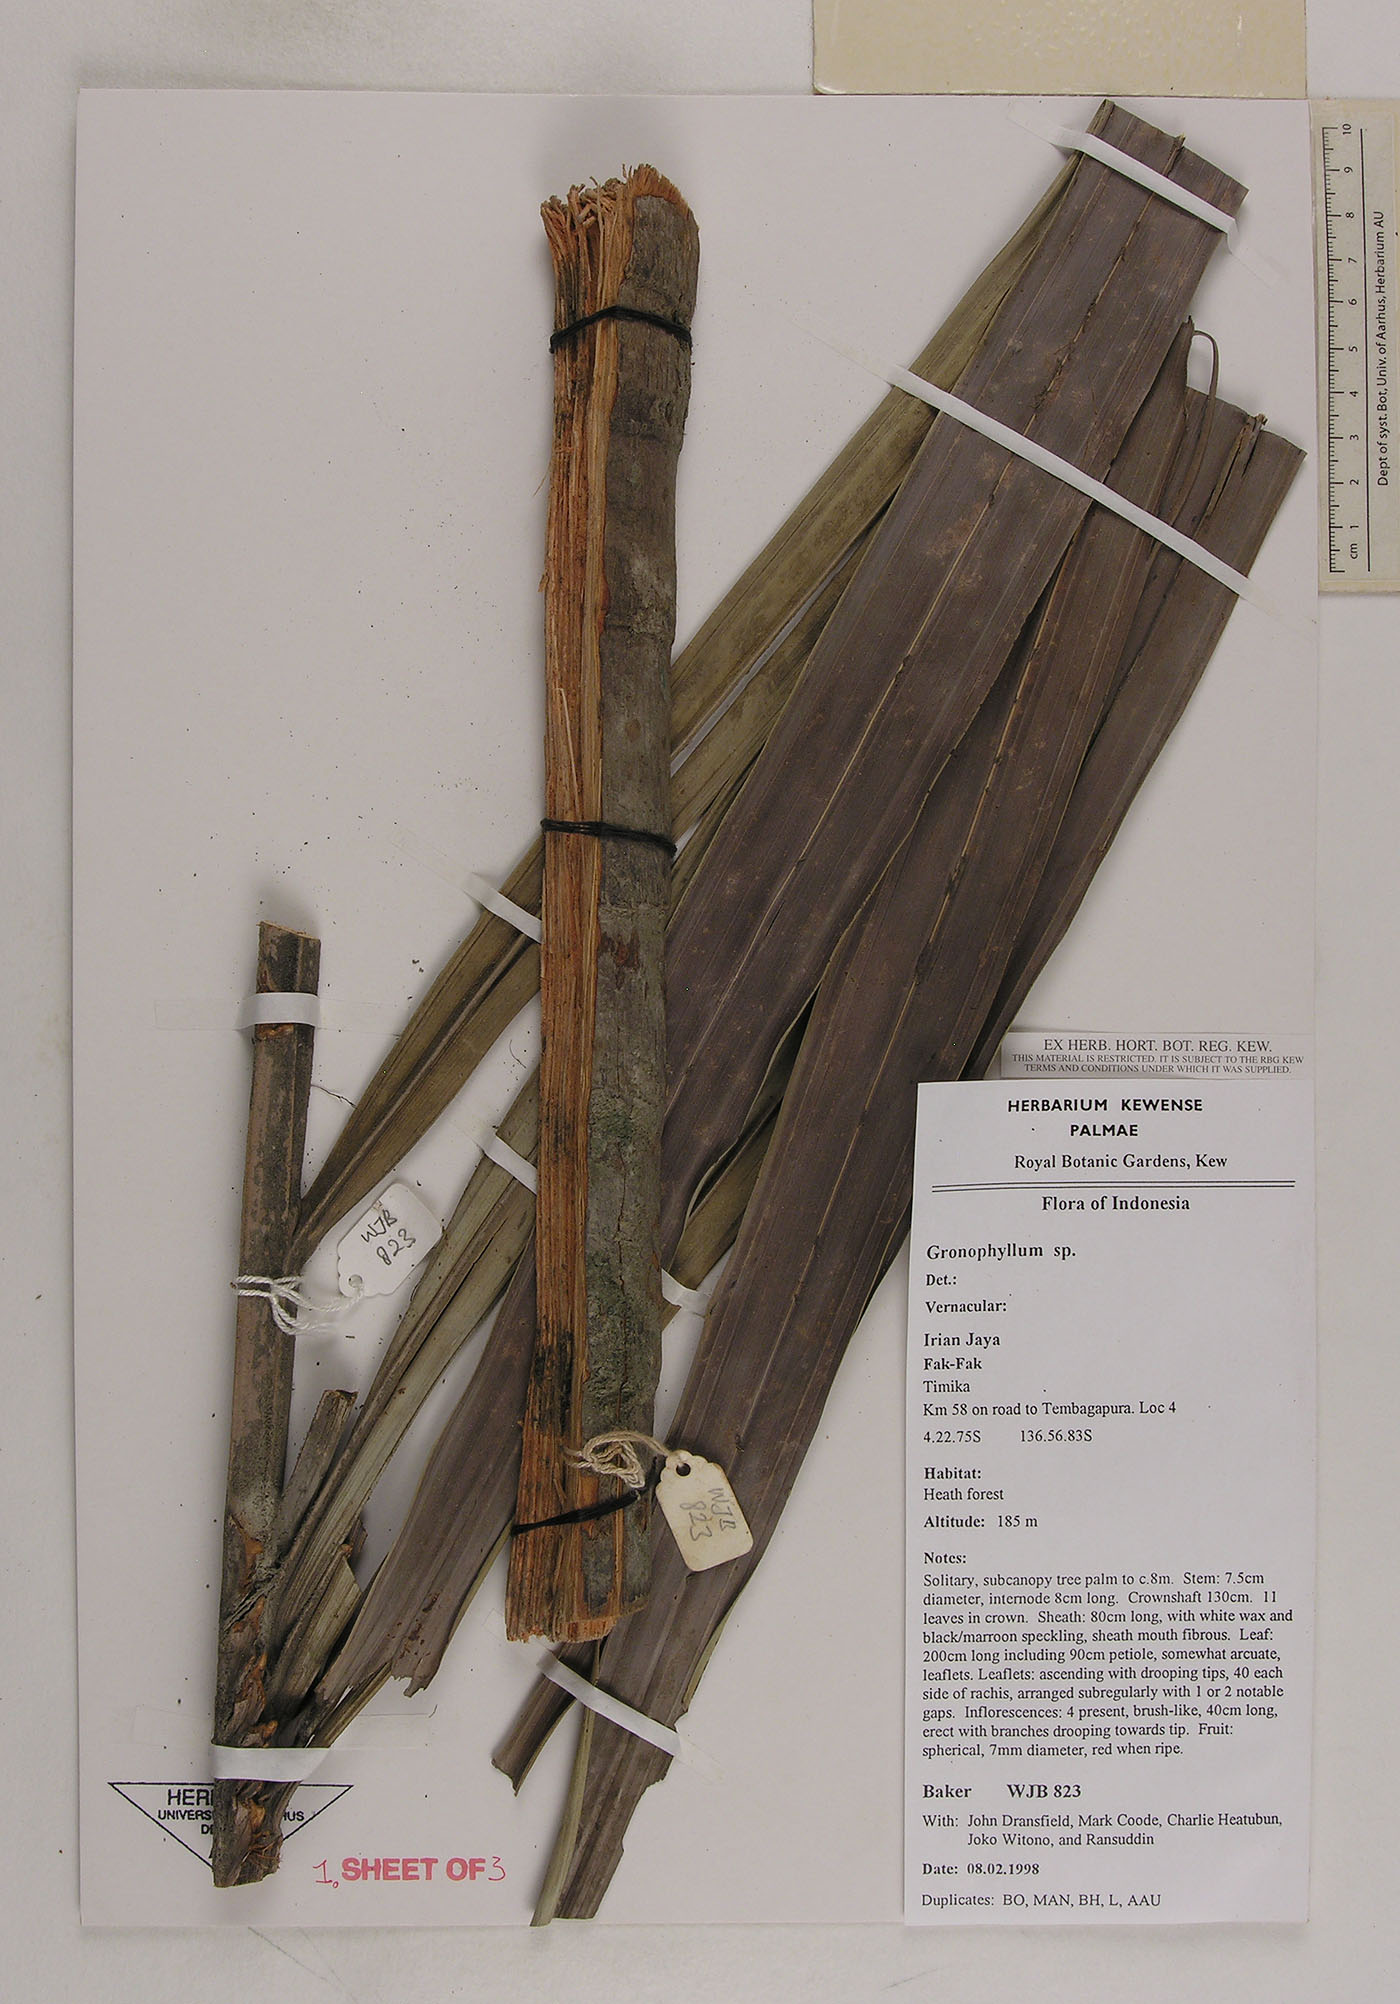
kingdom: Plantae
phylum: Tracheophyta
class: Liliopsida
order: Arecales
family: Arecaceae
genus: Hydriastele
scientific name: Hydriastele
